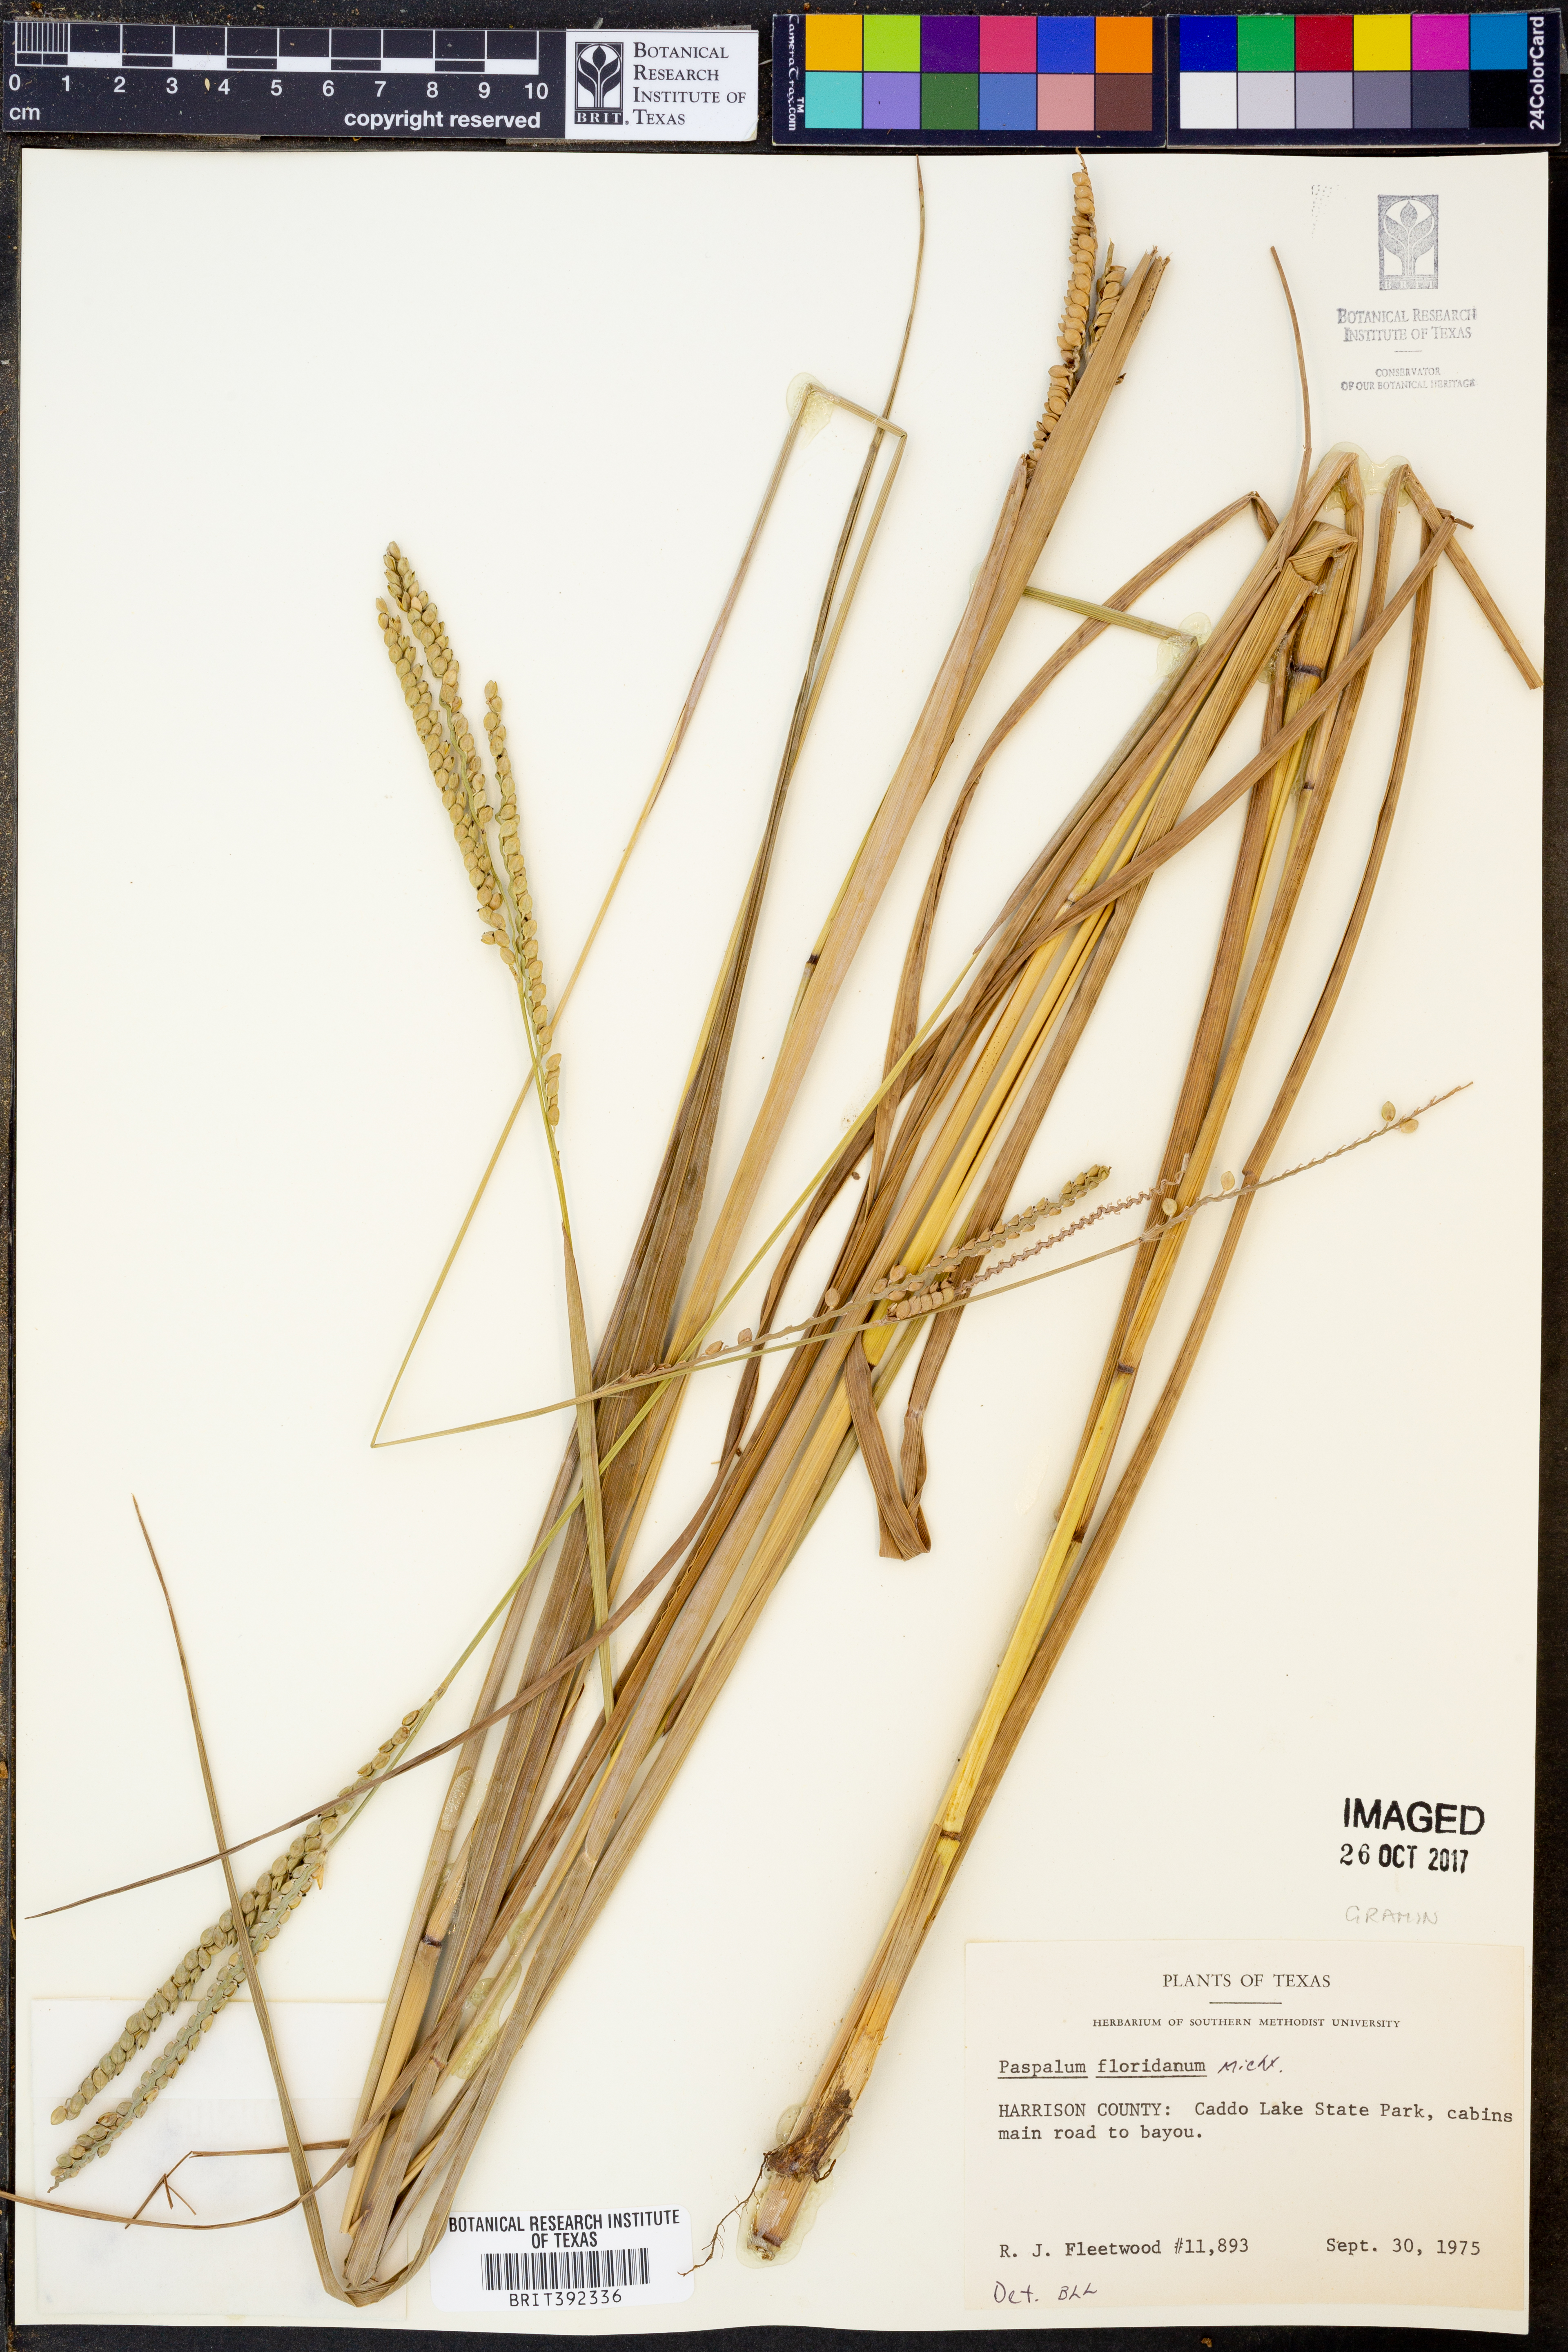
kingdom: Plantae
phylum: Tracheophyta
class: Liliopsida
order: Poales
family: Poaceae
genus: Paspalum
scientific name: Paspalum floridanum
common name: Florida paspalum
